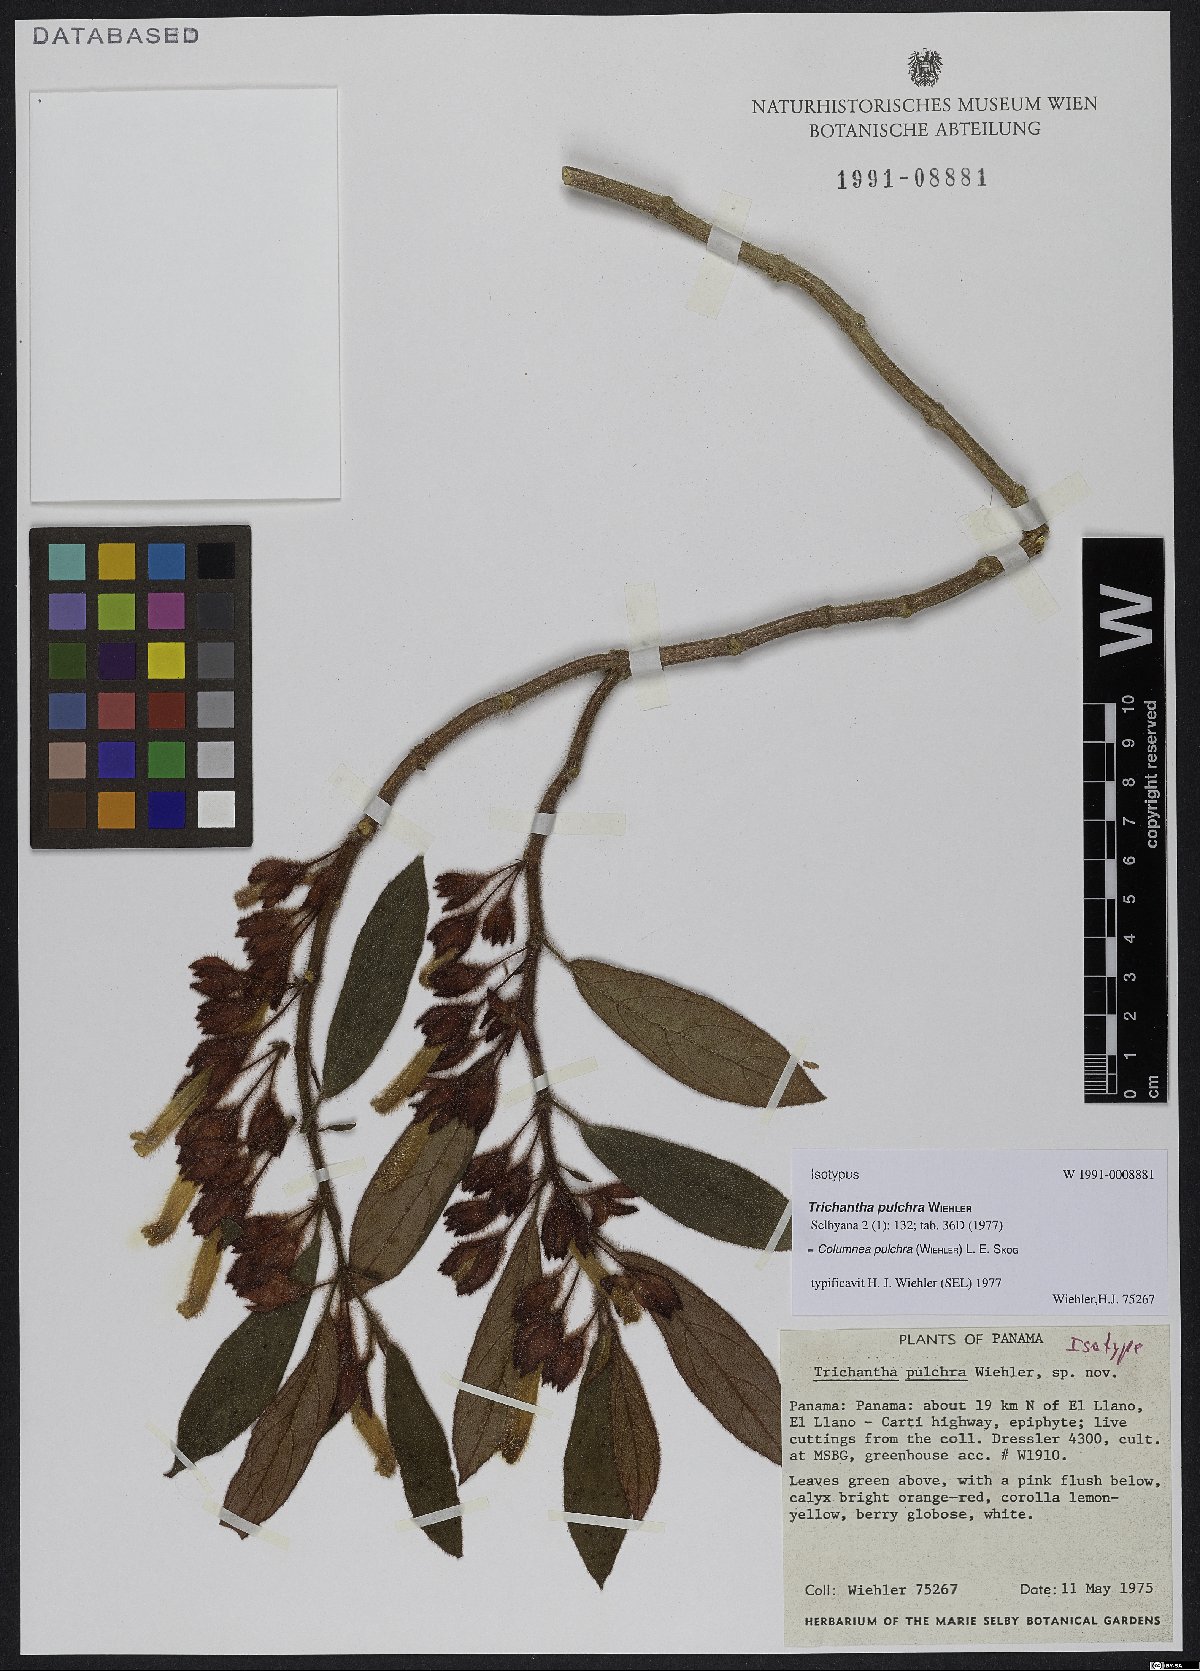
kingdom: Plantae
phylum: Tracheophyta
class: Magnoliopsida
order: Lamiales
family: Gesneriaceae
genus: Columnea
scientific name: Columnea pulchra
